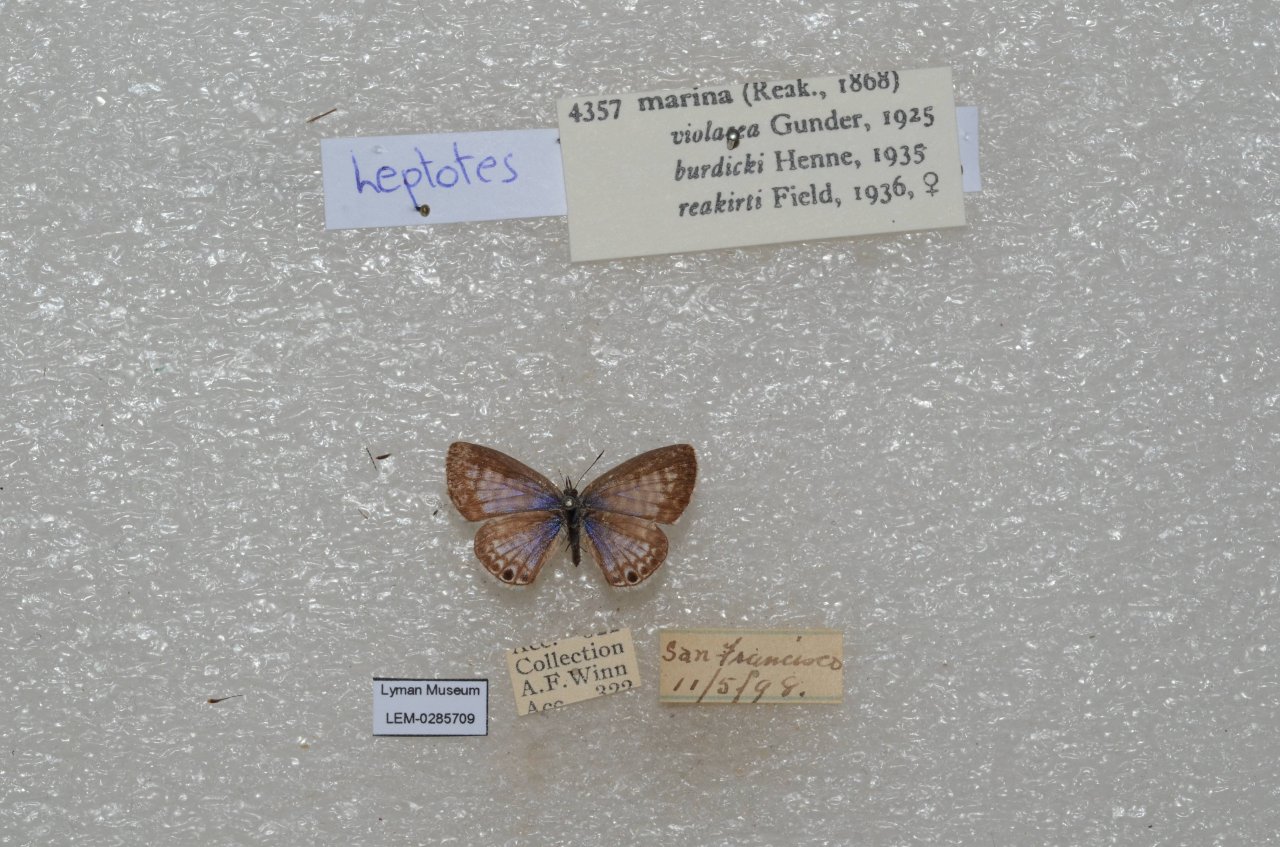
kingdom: Animalia
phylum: Arthropoda
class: Insecta
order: Lepidoptera
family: Lycaenidae
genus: Leptotes
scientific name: Leptotes marina
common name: Marine Blue
